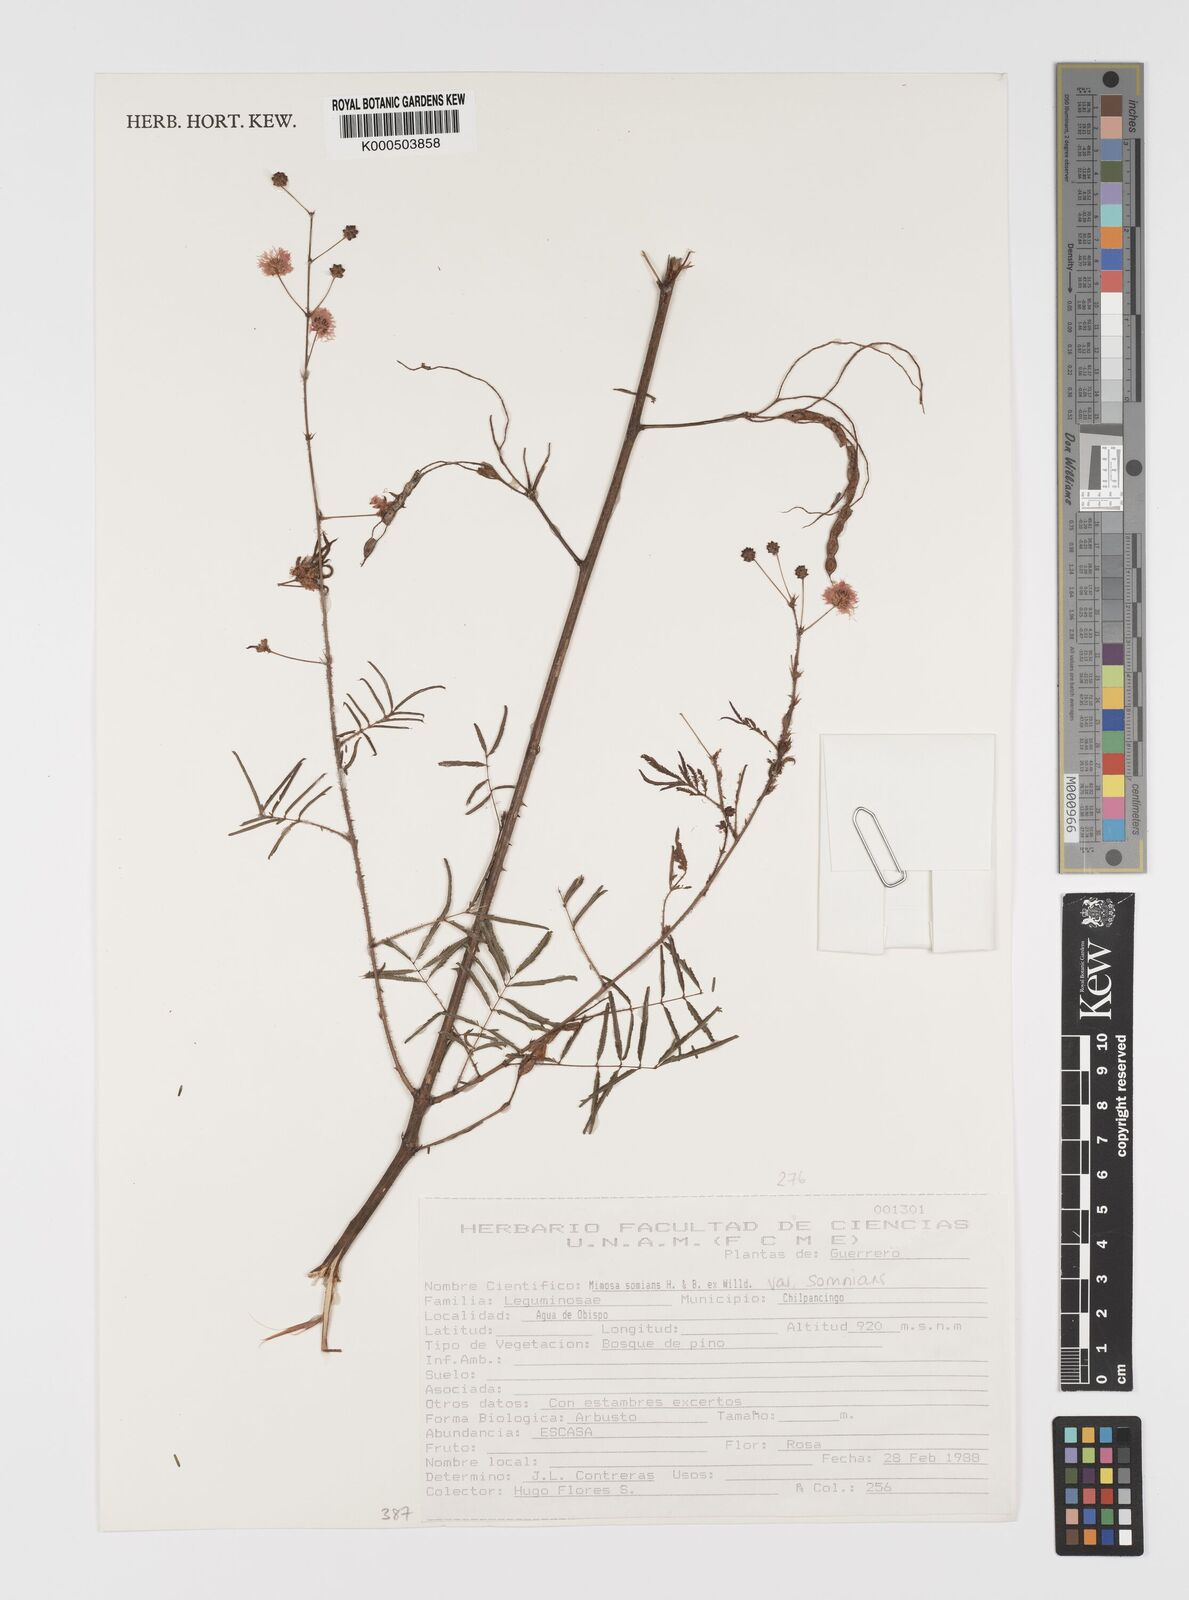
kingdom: Plantae
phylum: Tracheophyta
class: Magnoliopsida
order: Fabales
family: Fabaceae
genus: Mimosa
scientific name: Mimosa somnians
